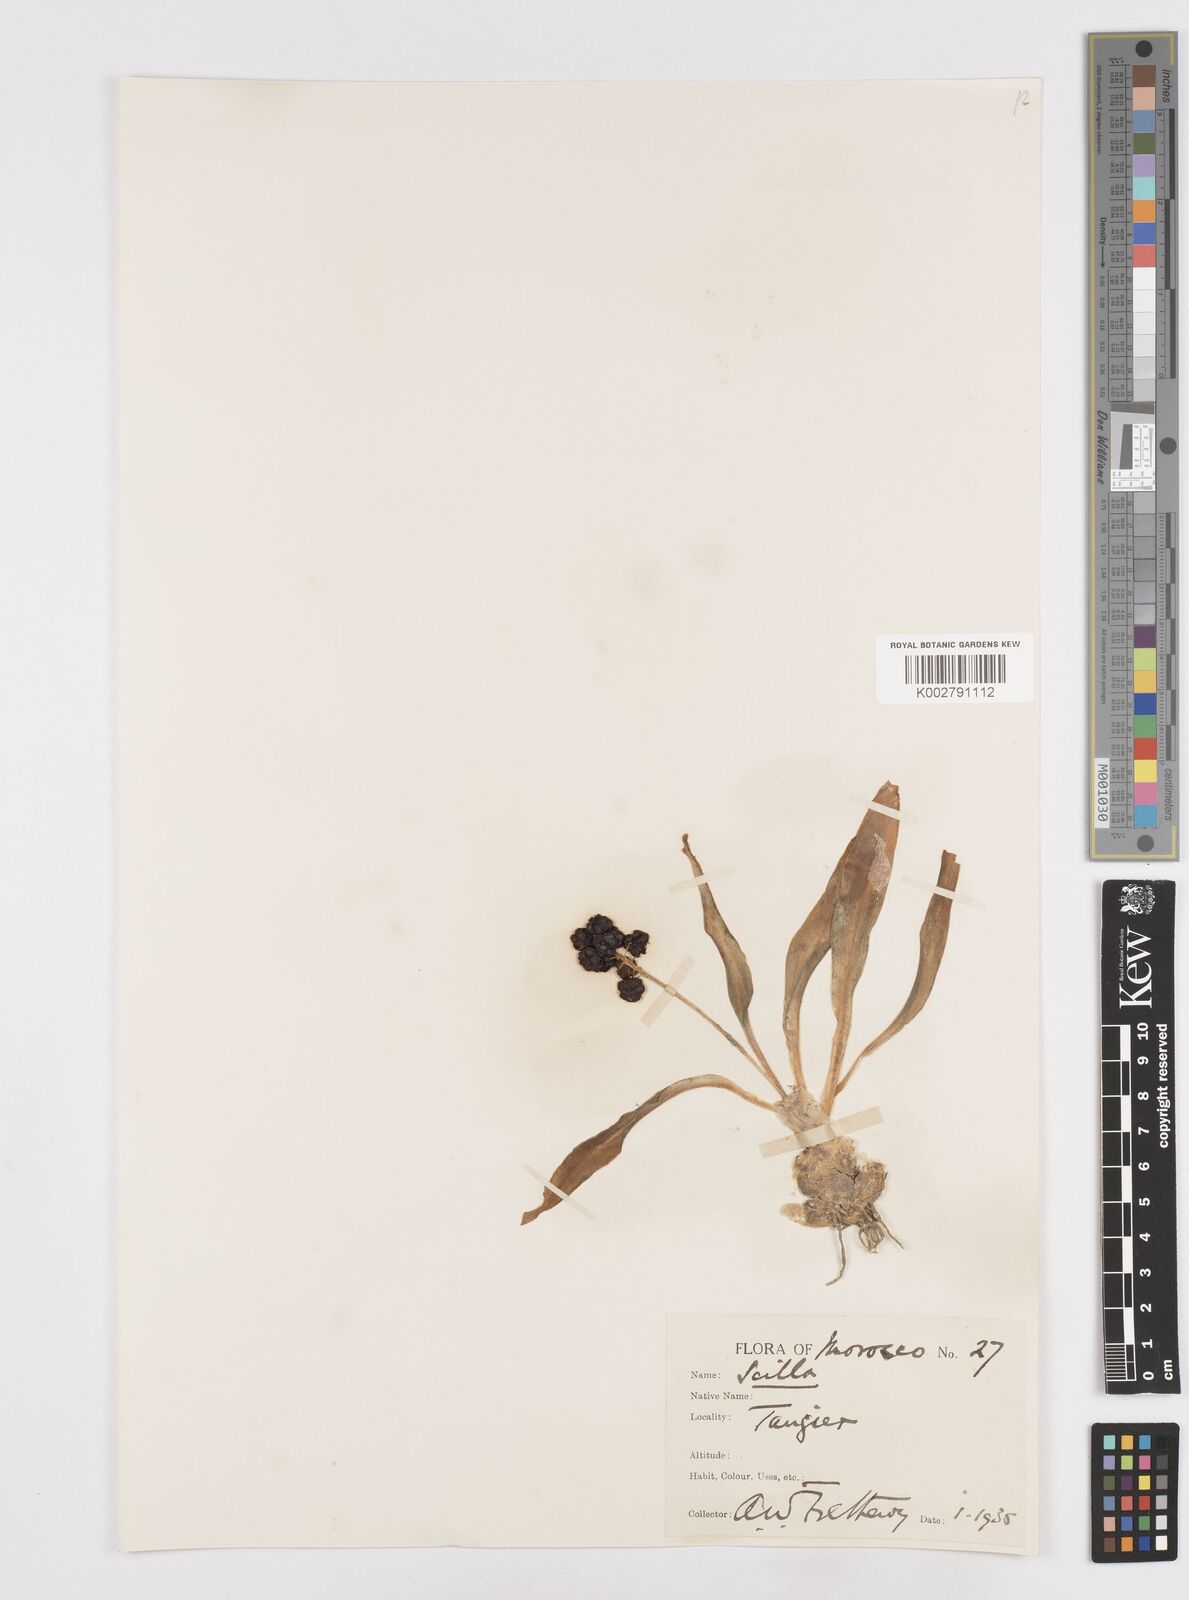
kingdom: Plantae
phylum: Tracheophyta
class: Liliopsida
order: Asparagales
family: Asparagaceae
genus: Scilla
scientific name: Scilla
